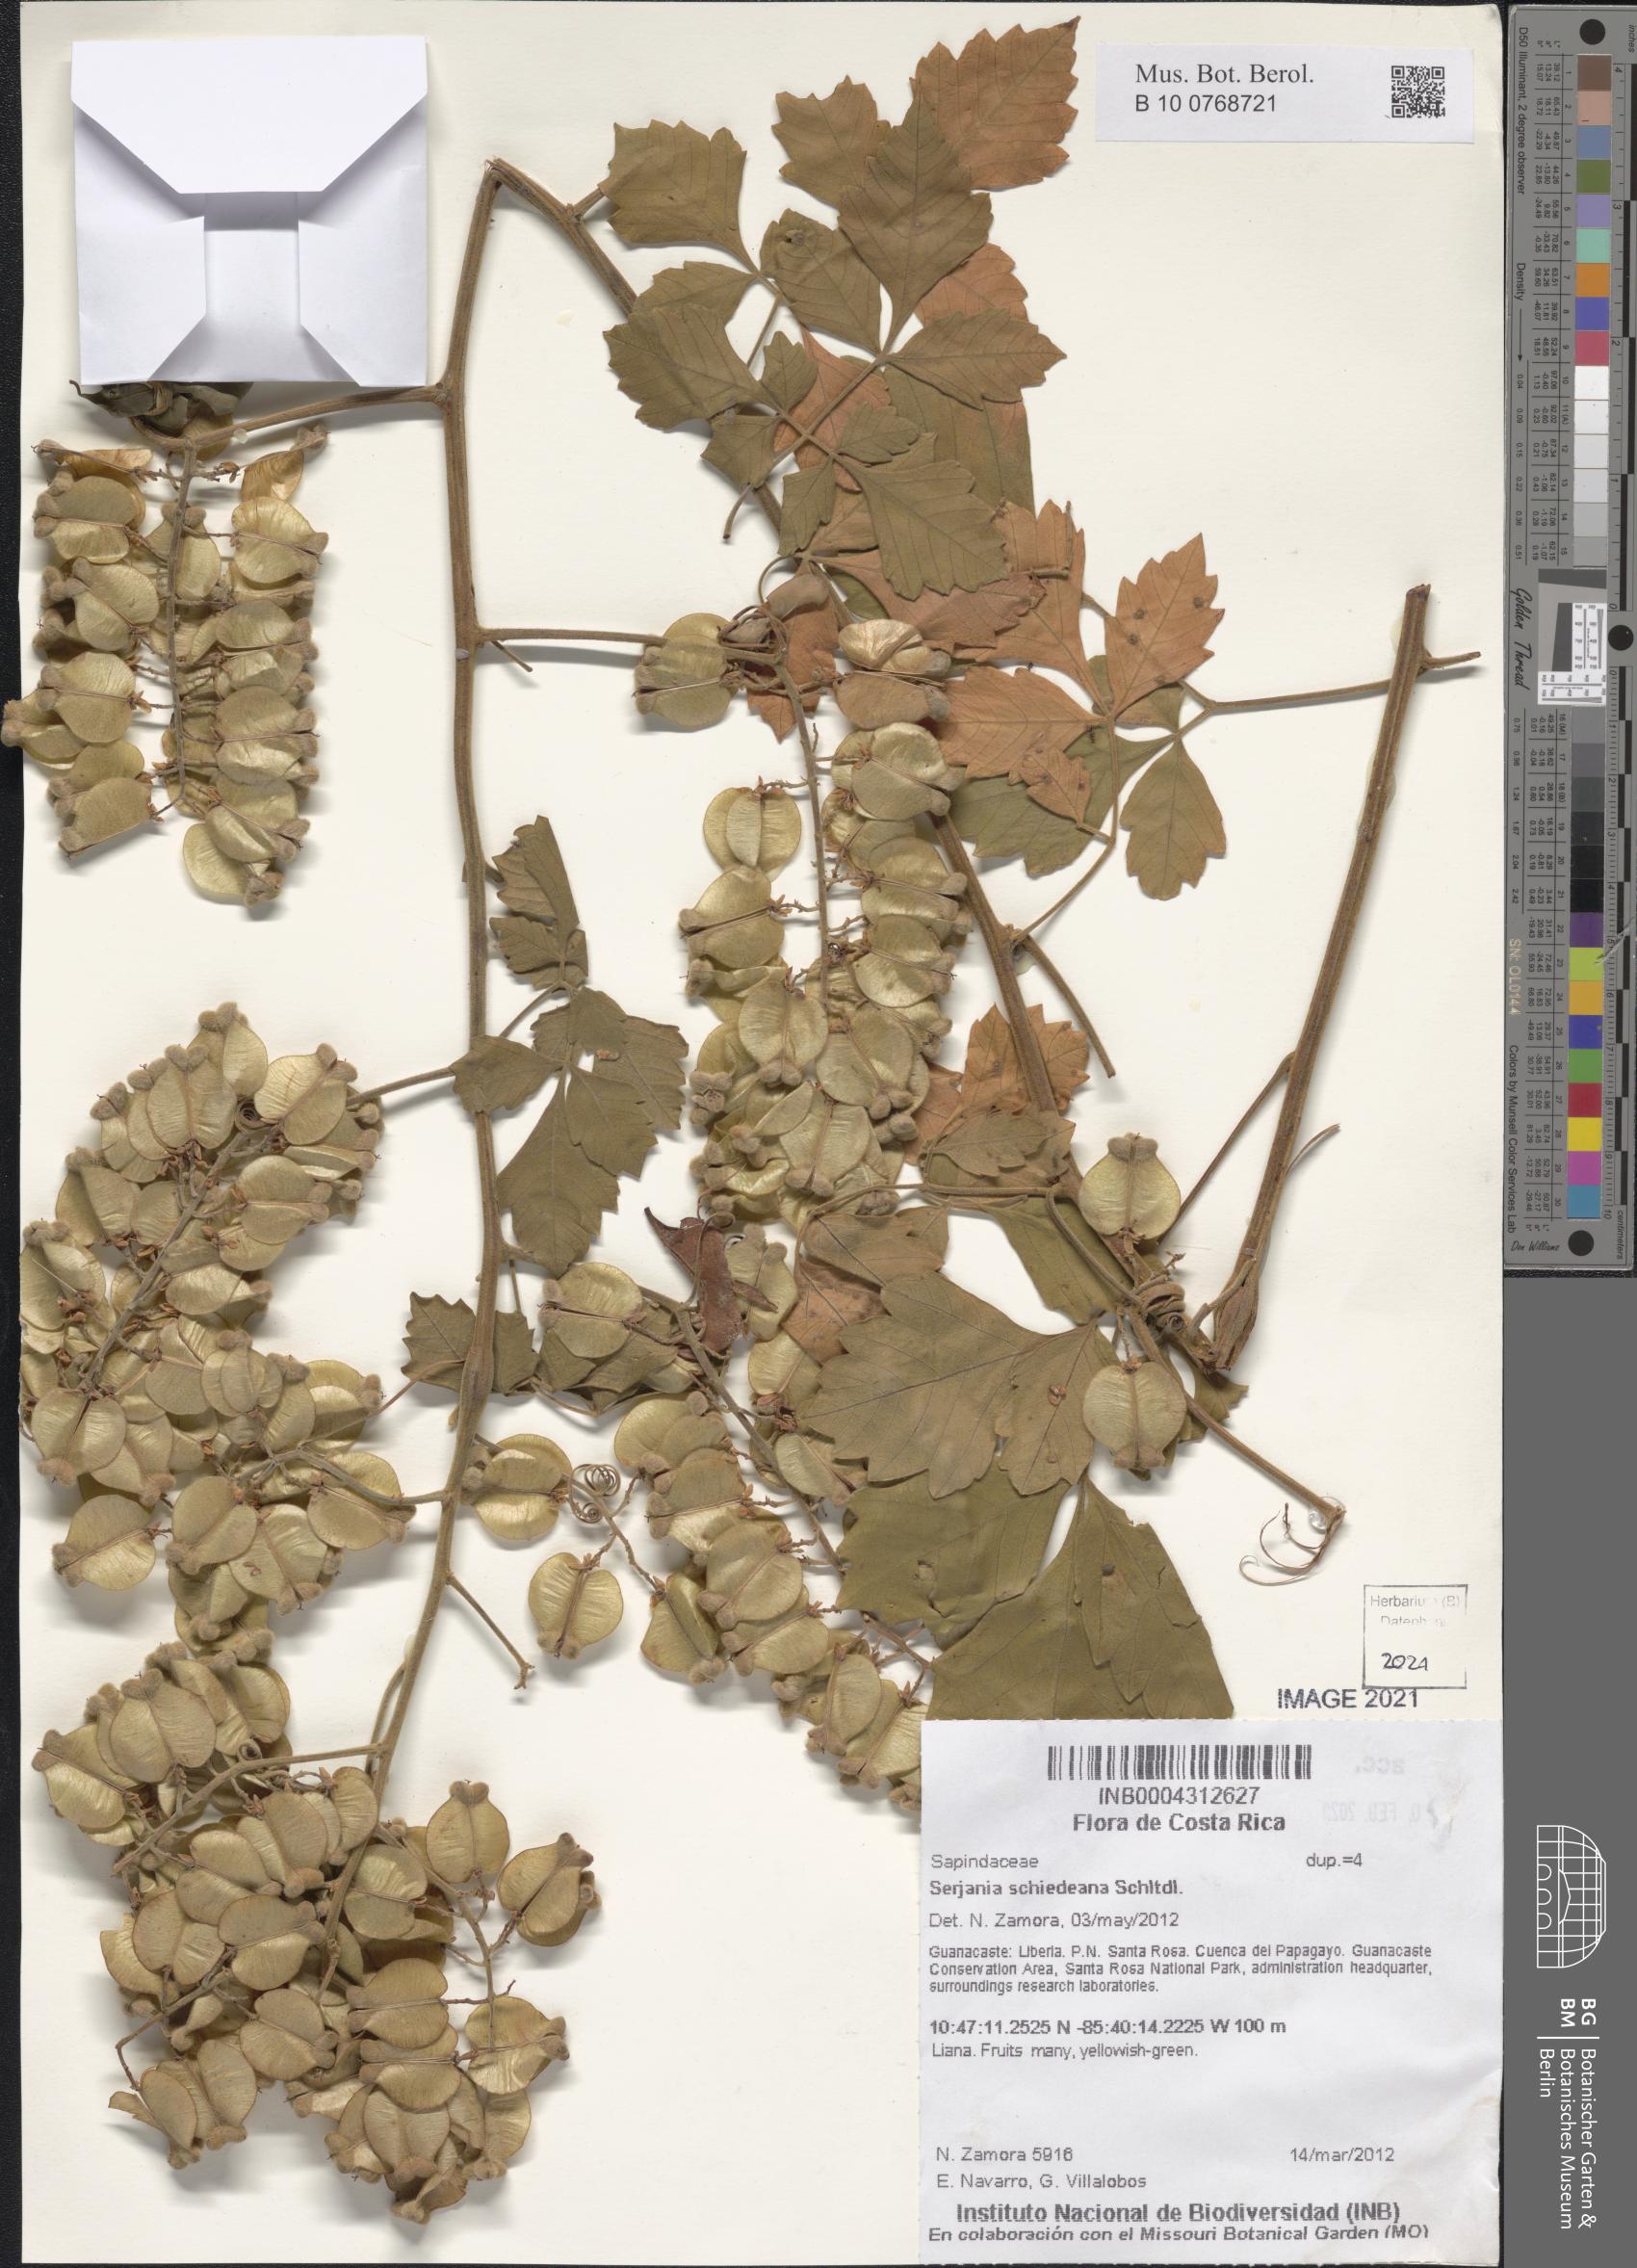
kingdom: Plantae
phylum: Tracheophyta
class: Magnoliopsida
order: Sapindales
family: Sapindaceae
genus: Serjania
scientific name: Serjania schiedeana
